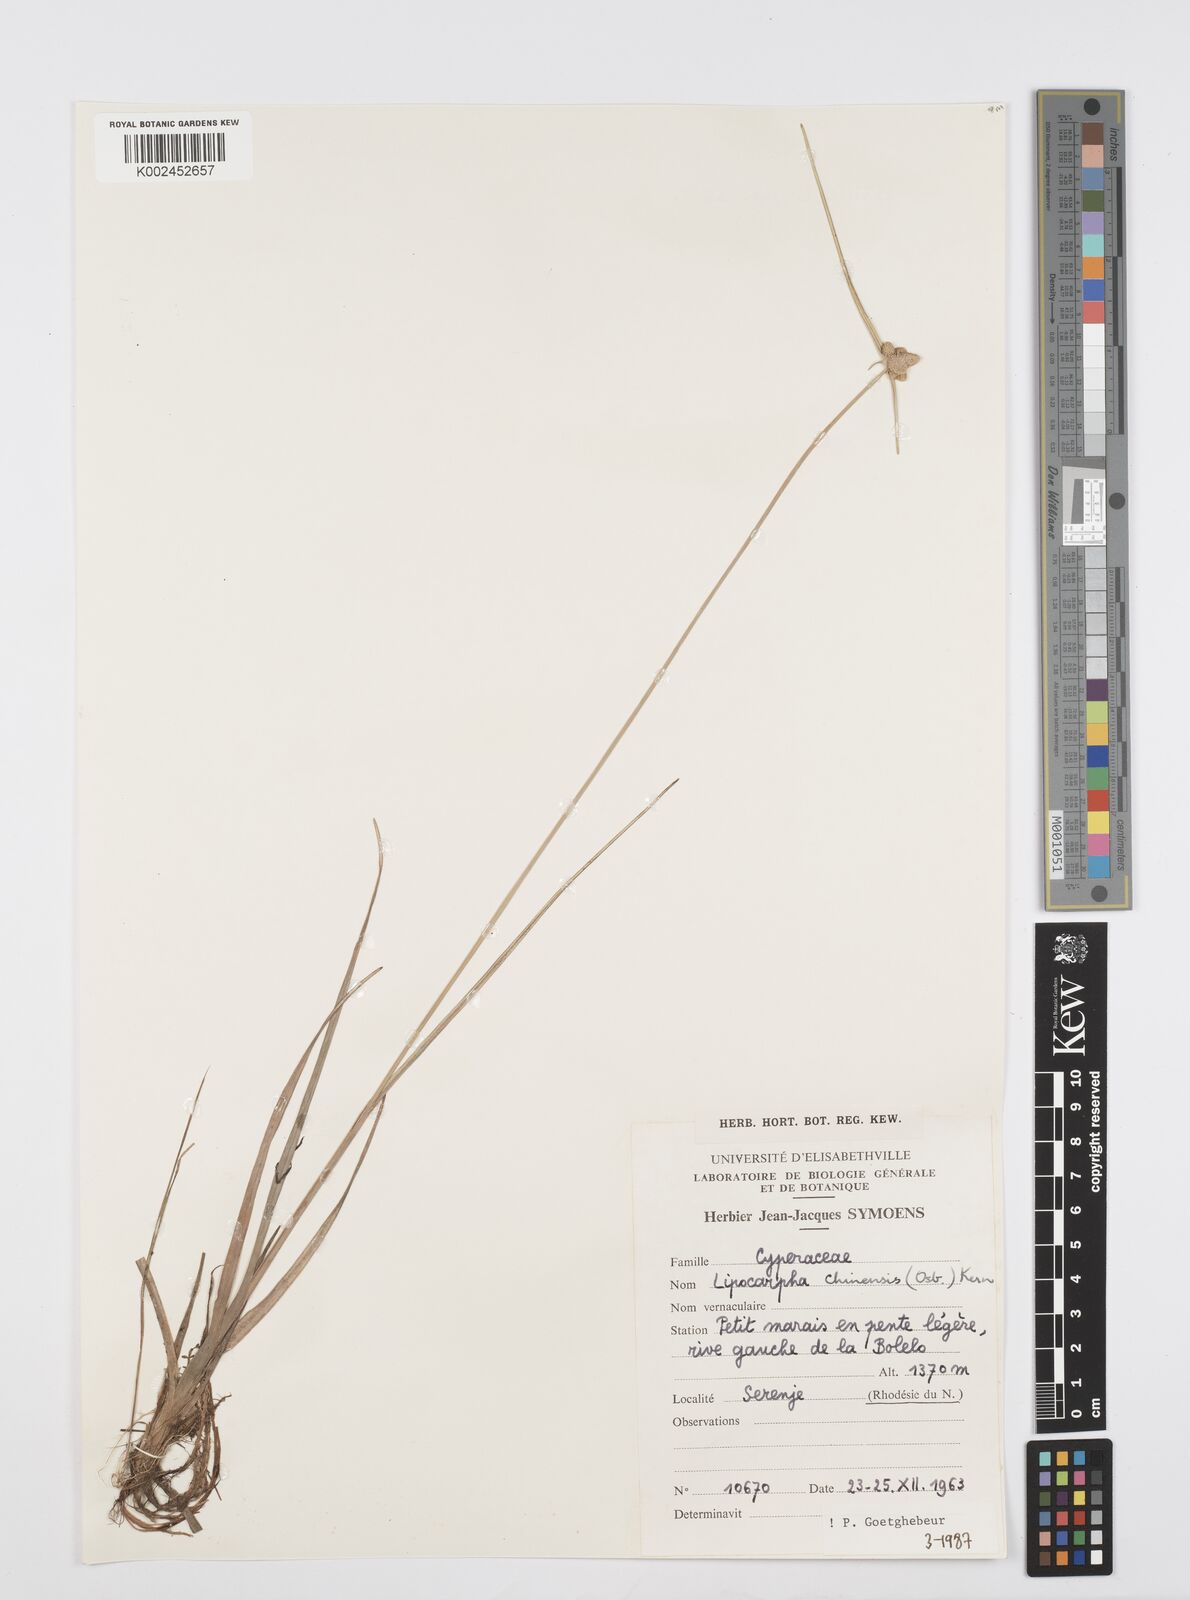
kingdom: Plantae
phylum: Tracheophyta
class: Liliopsida
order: Poales
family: Cyperaceae
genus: Cyperus
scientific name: Cyperus albescens
